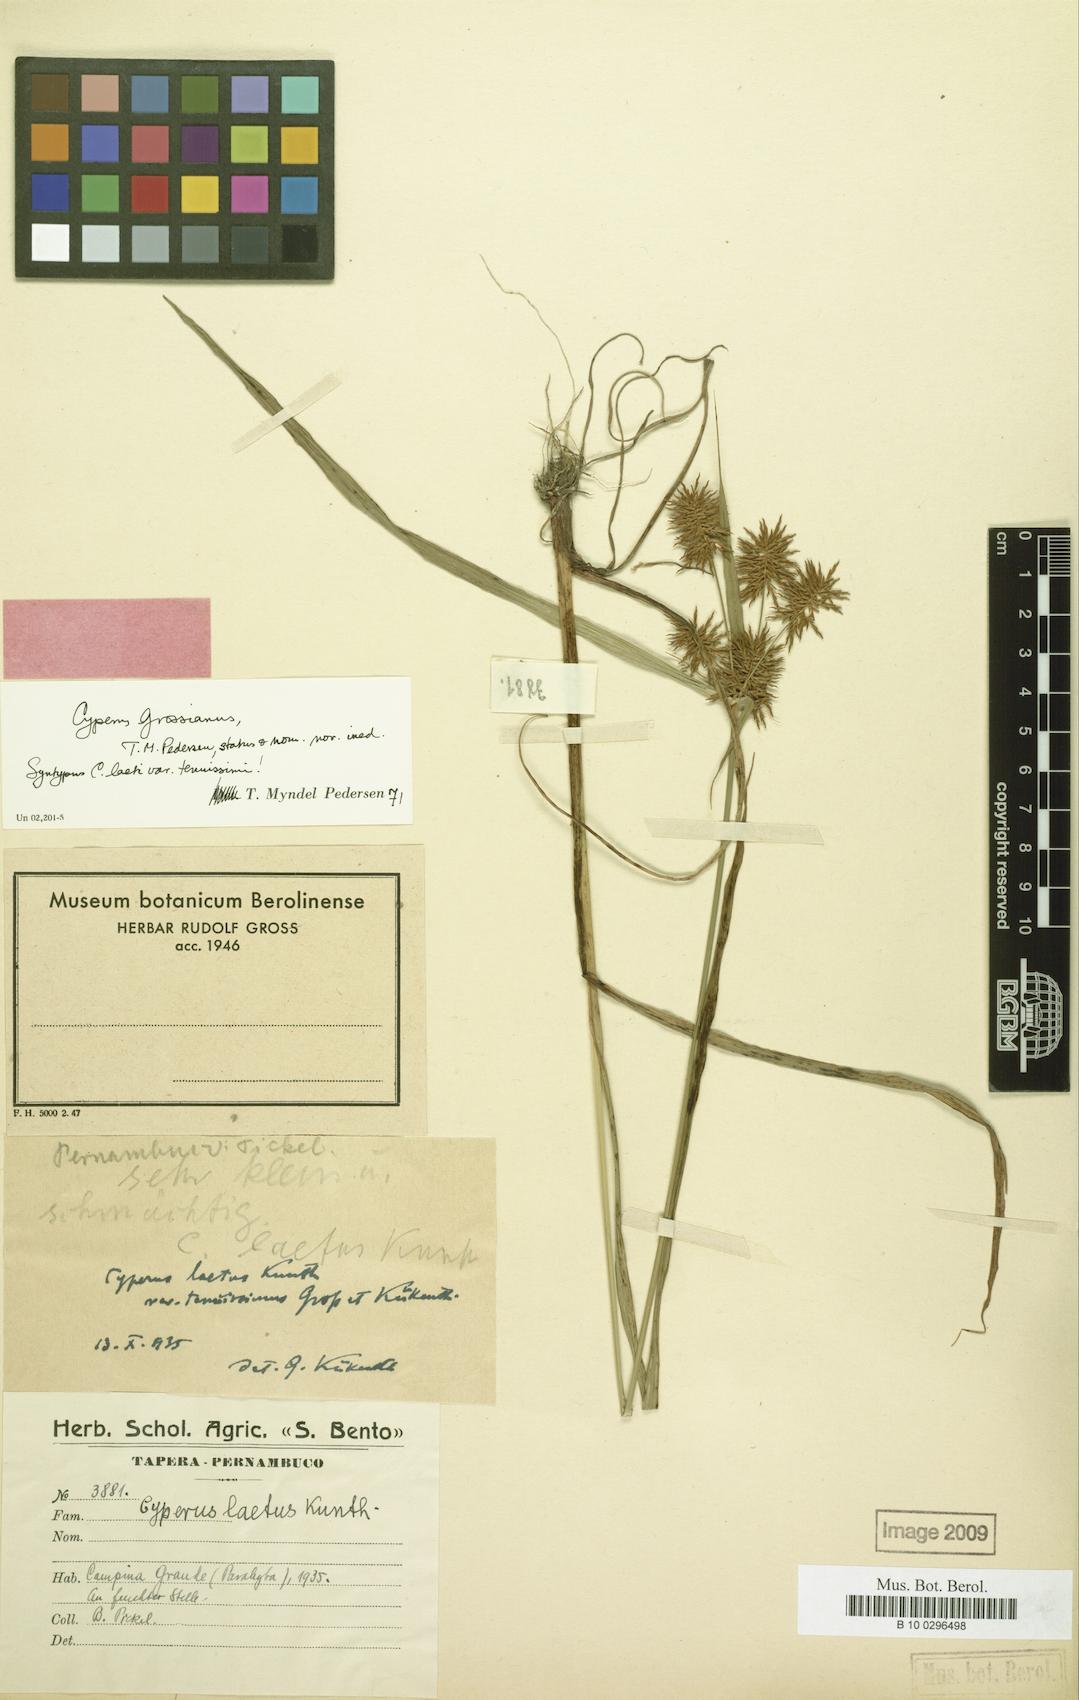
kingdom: Plantae
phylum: Tracheophyta
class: Liliopsida
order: Poales
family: Cyperaceae
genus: Cyperus
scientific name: Cyperus grossianus
